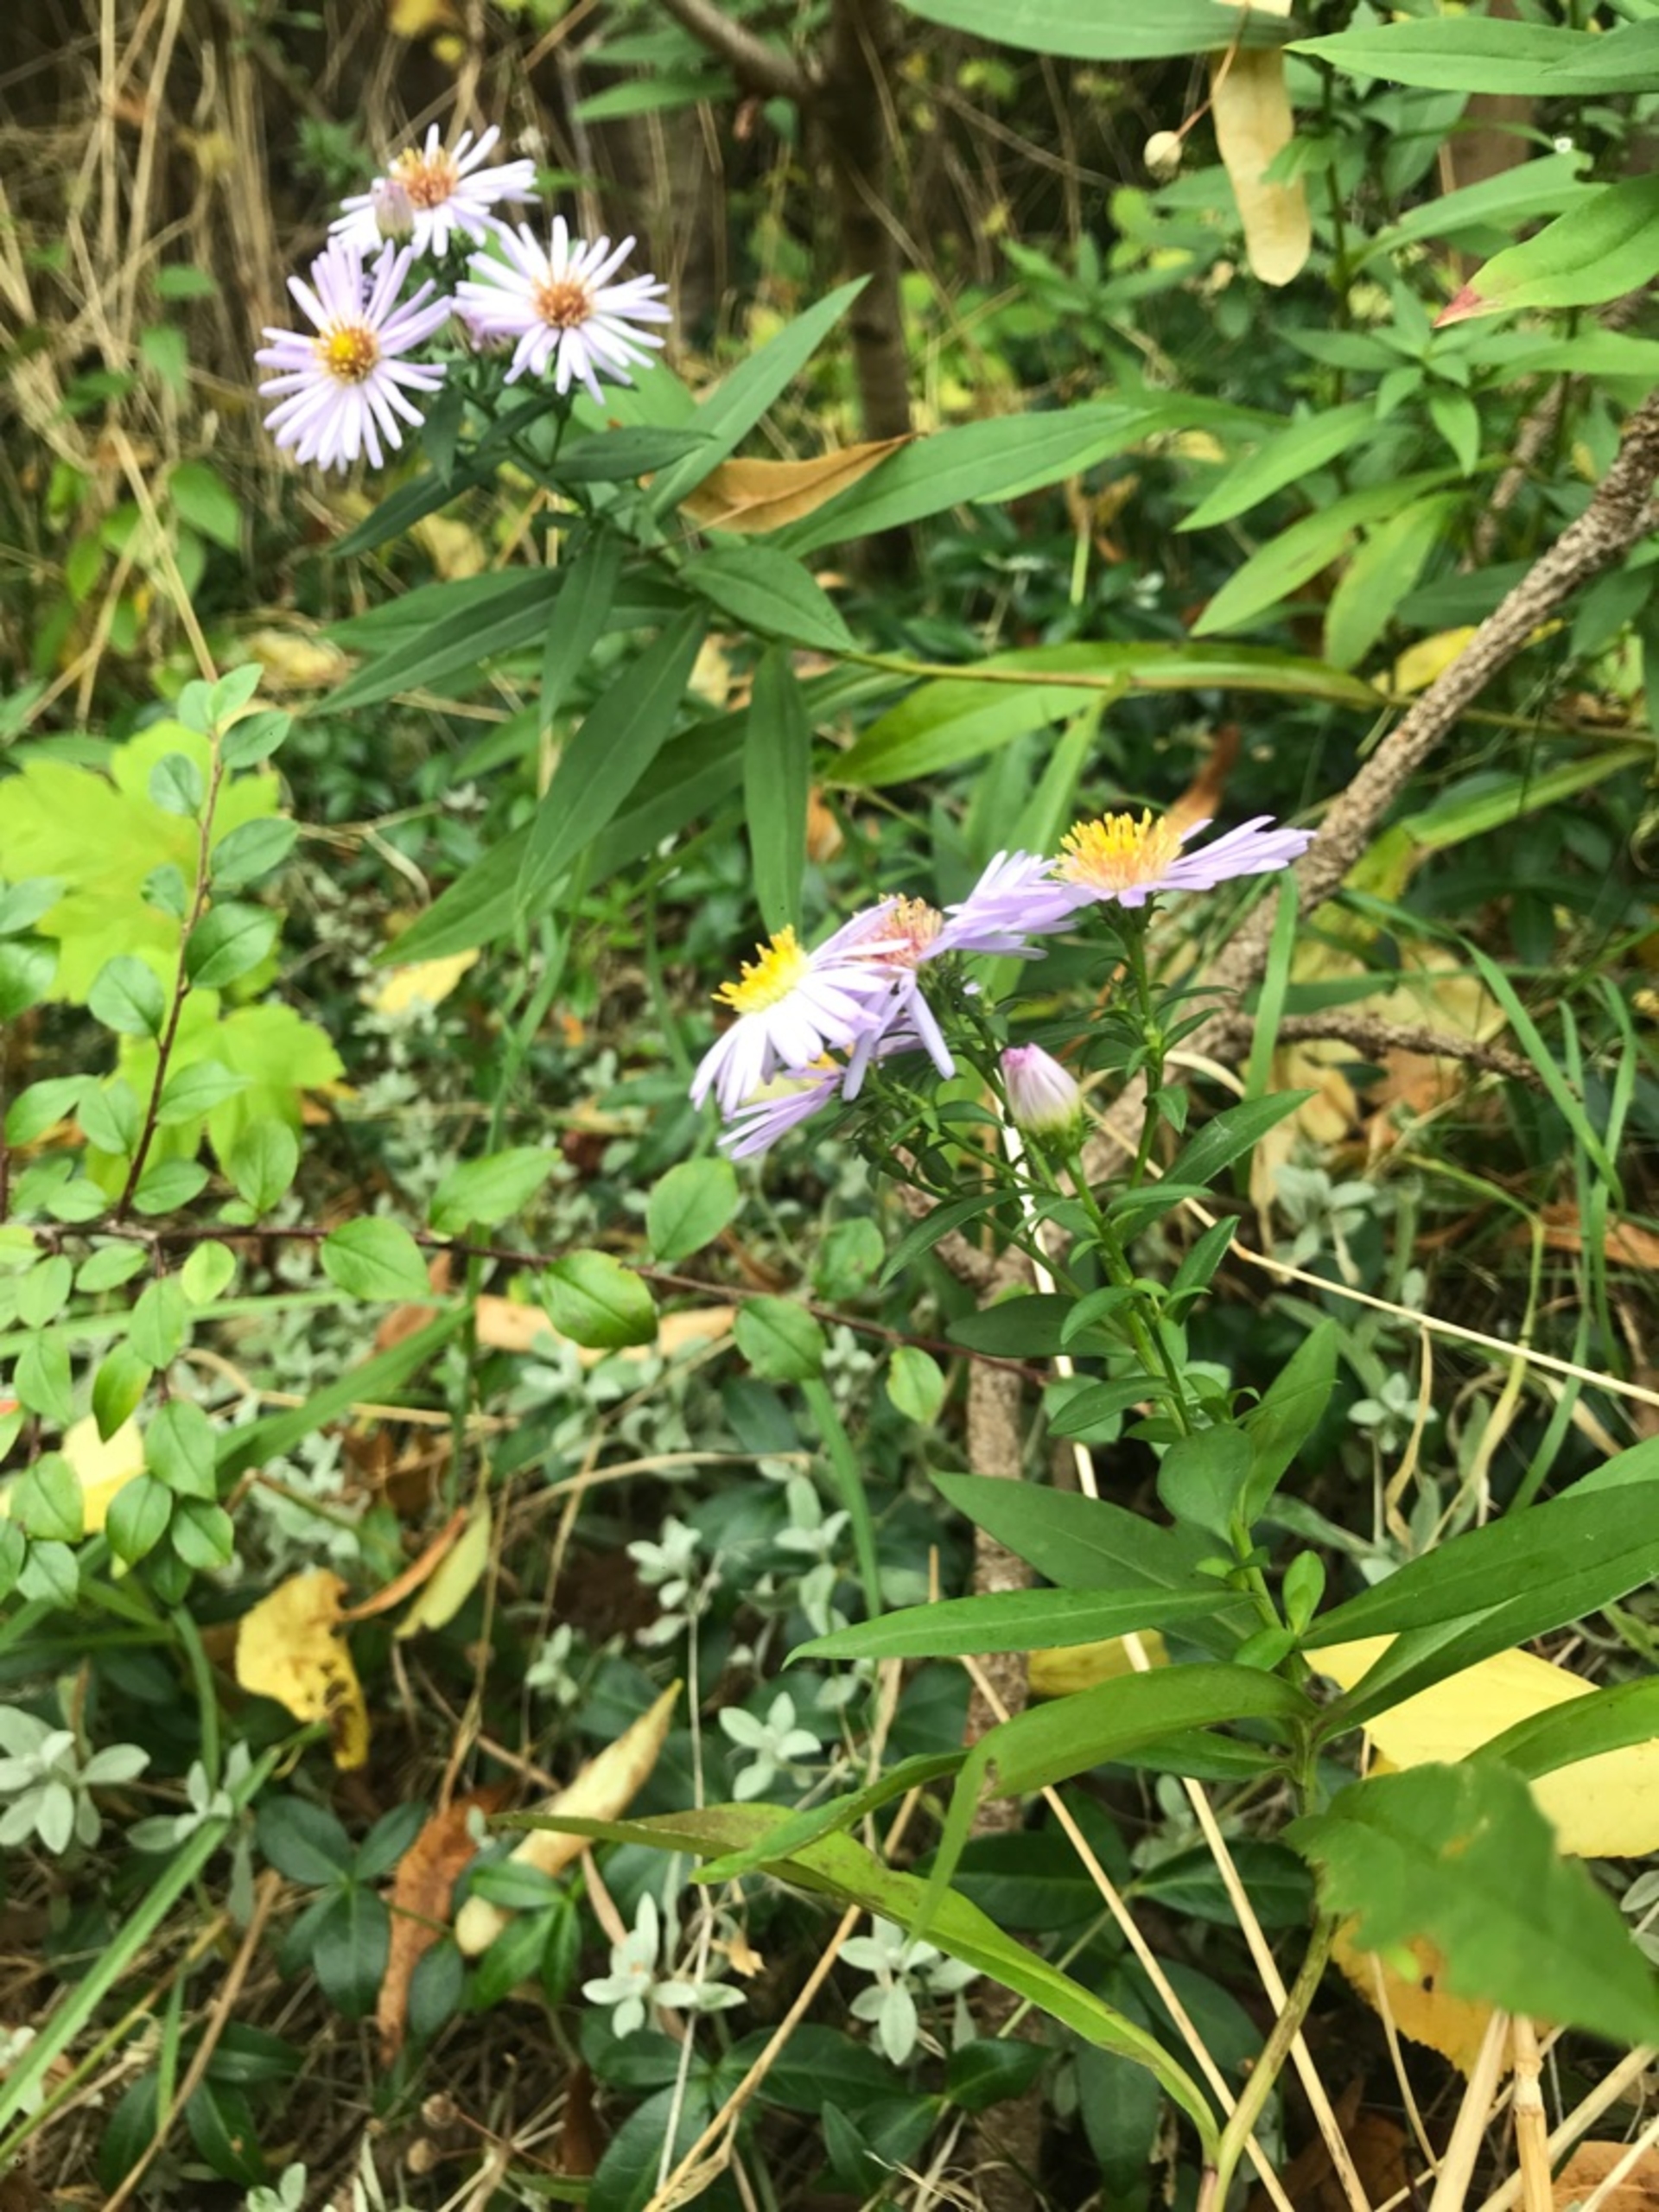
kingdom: Plantae
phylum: Tracheophyta
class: Magnoliopsida
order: Asterales
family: Asteraceae
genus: Symphyotrichum
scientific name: Symphyotrichum versicolor
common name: Broget asters
